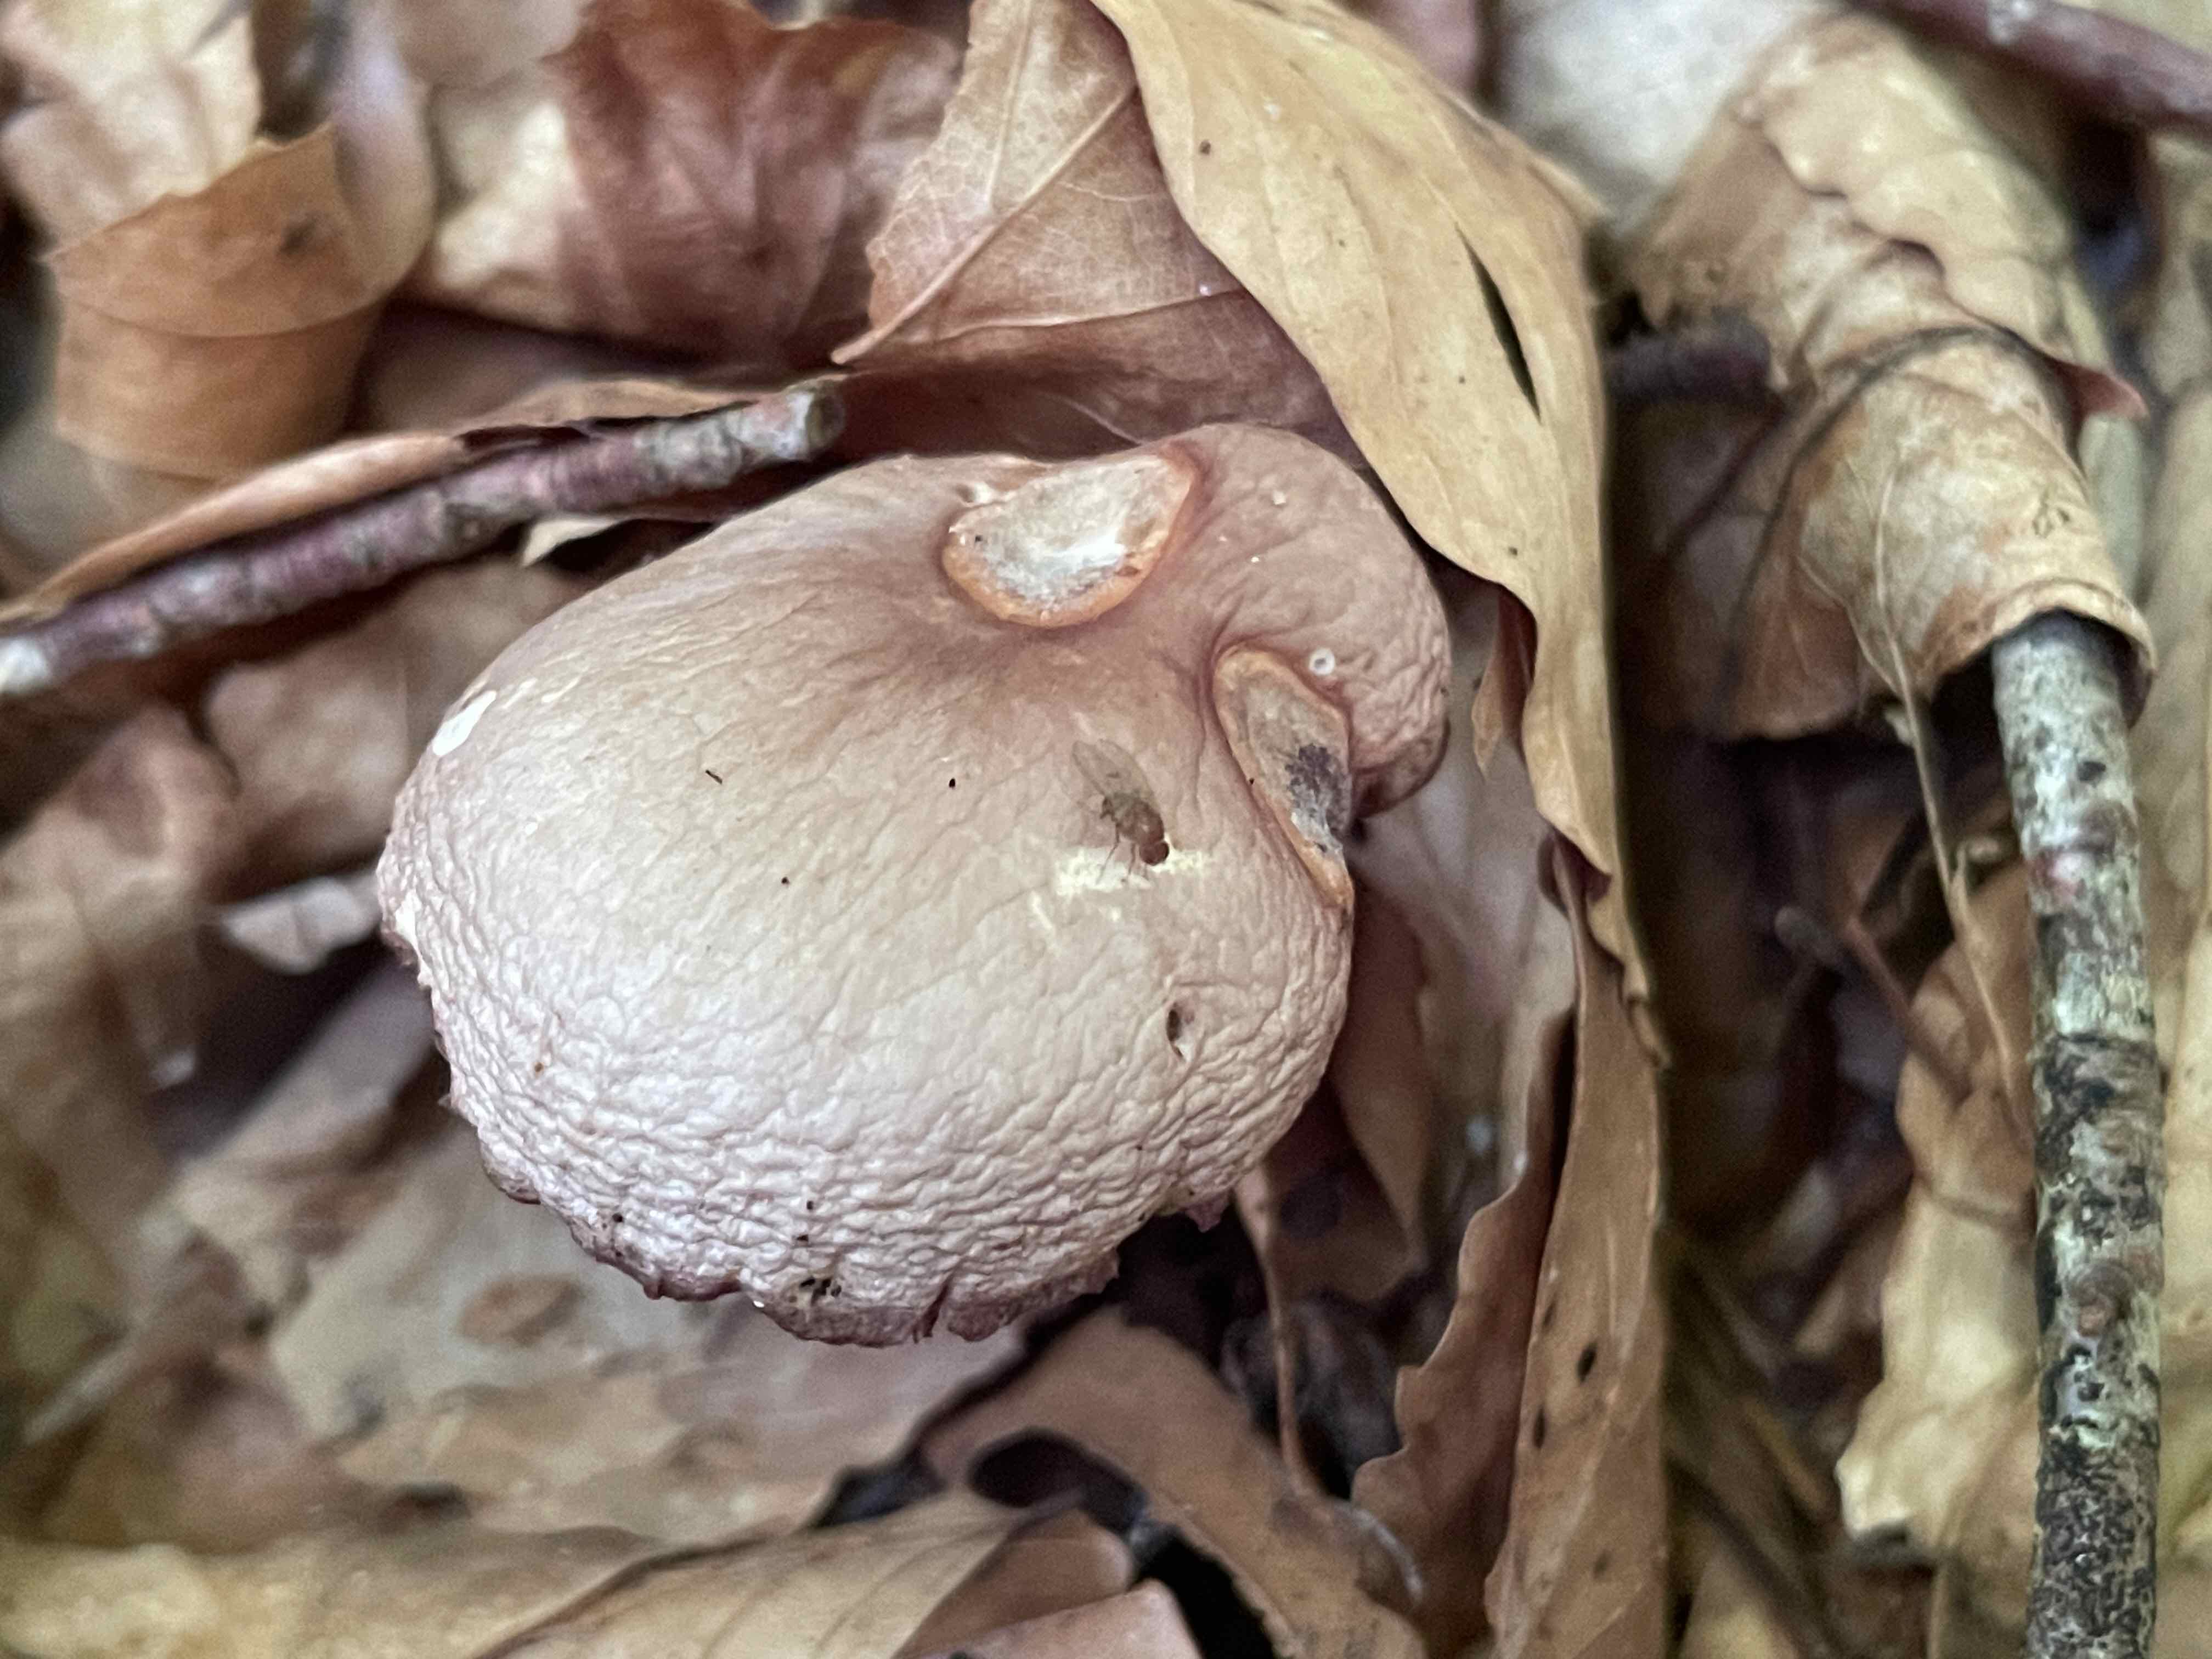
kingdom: Fungi
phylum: Basidiomycota
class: Agaricomycetes
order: Agaricales
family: Mycenaceae
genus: Mycena
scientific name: Mycena pelianthina
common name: mørkbladet huesvamp
